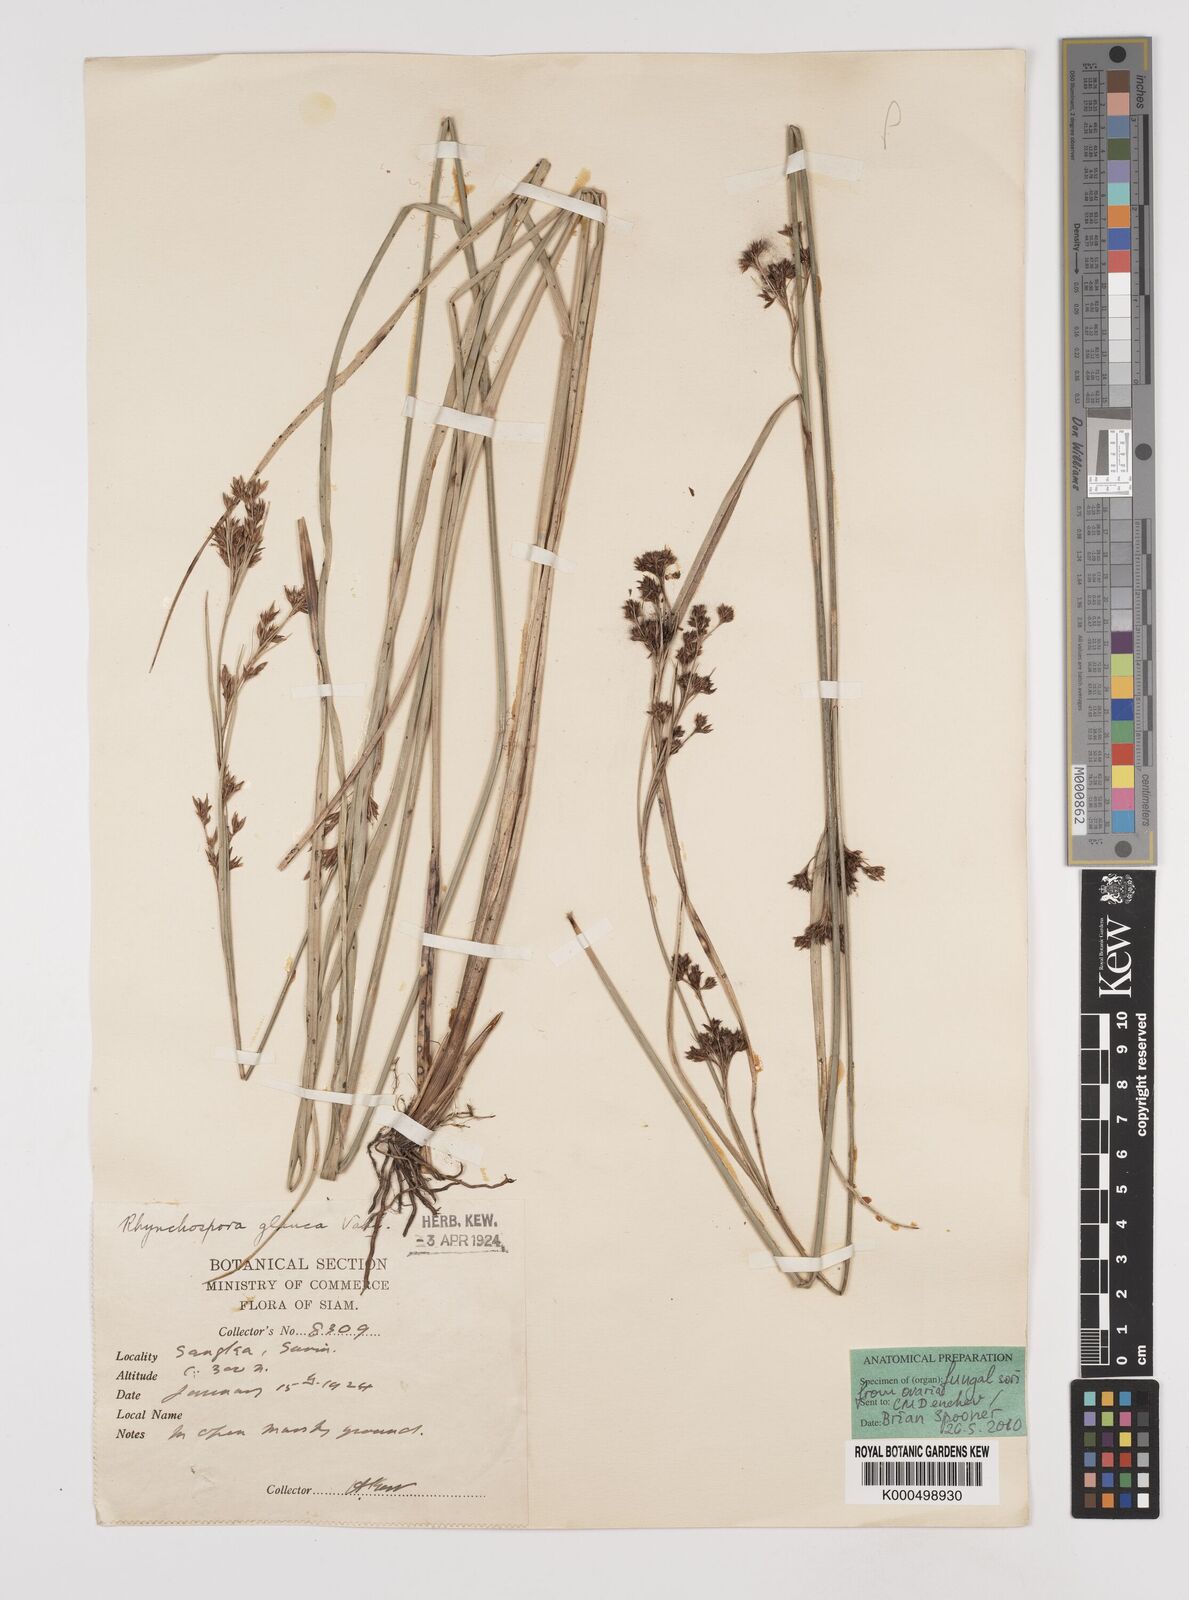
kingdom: Plantae
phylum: Tracheophyta
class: Liliopsida
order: Poales
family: Cyperaceae
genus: Rhynchospora
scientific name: Rhynchospora chinensis
